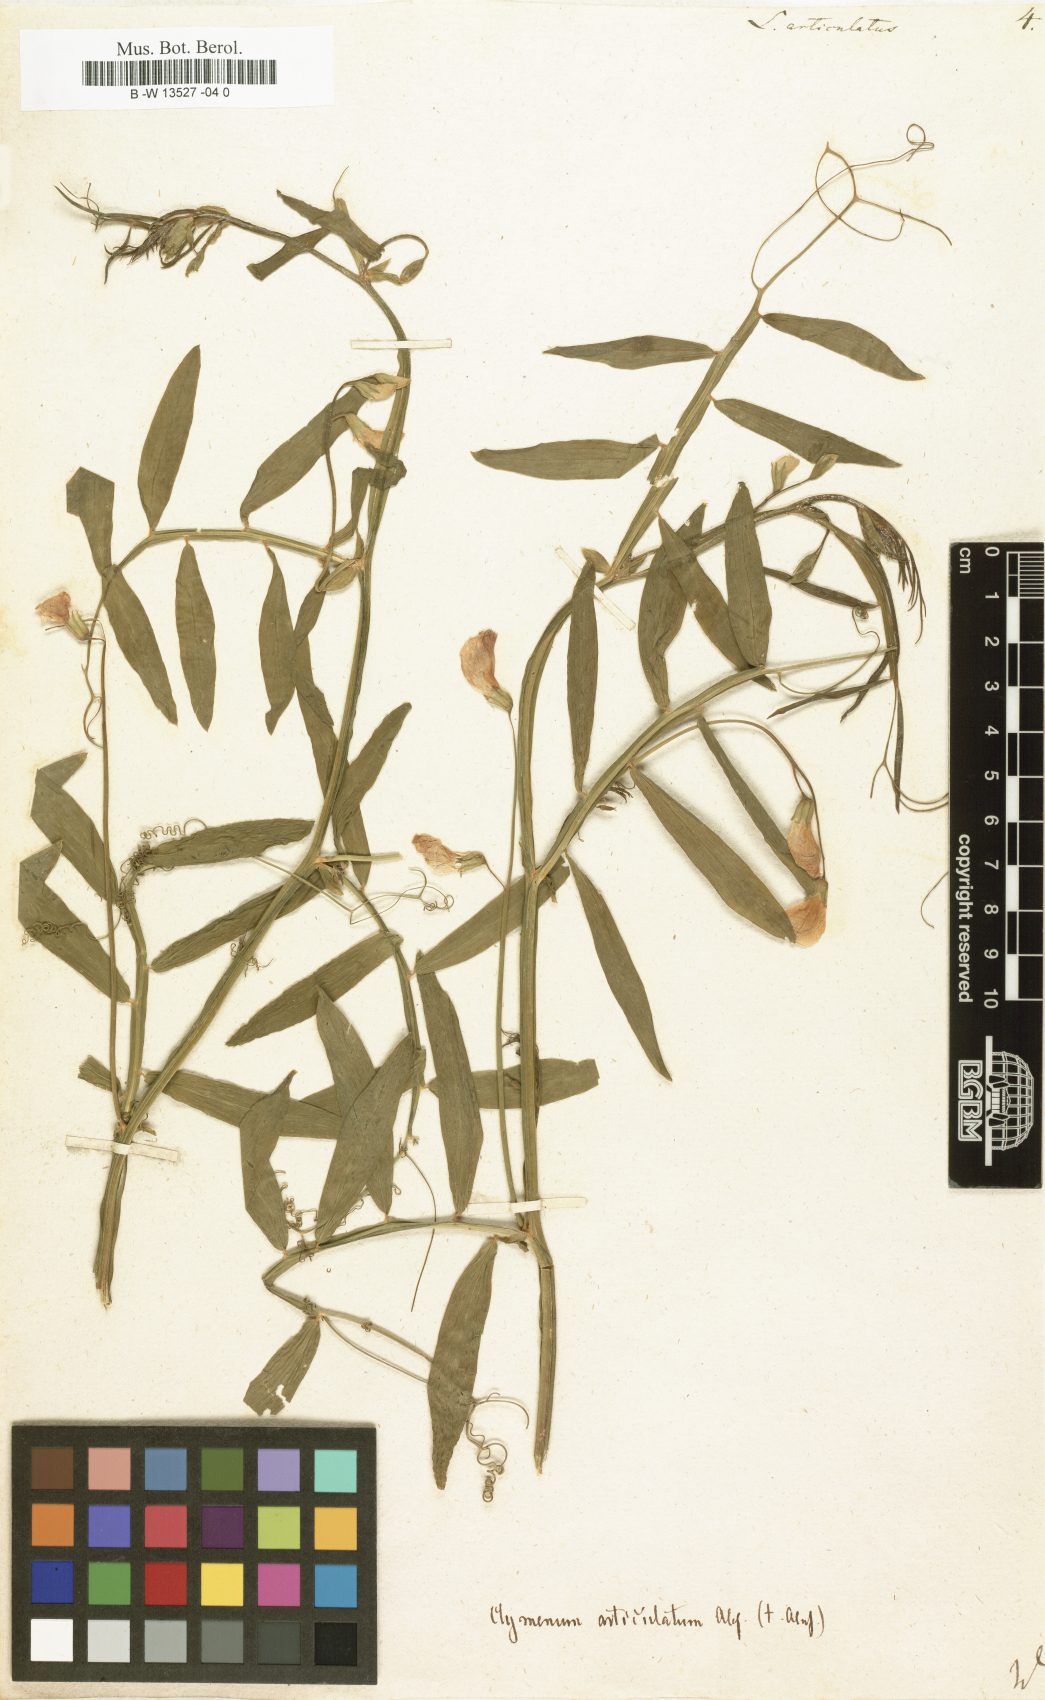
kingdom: Plantae
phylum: Tracheophyta
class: Magnoliopsida
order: Fabales
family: Fabaceae
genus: Lathyrus
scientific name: Lathyrus articulatus
